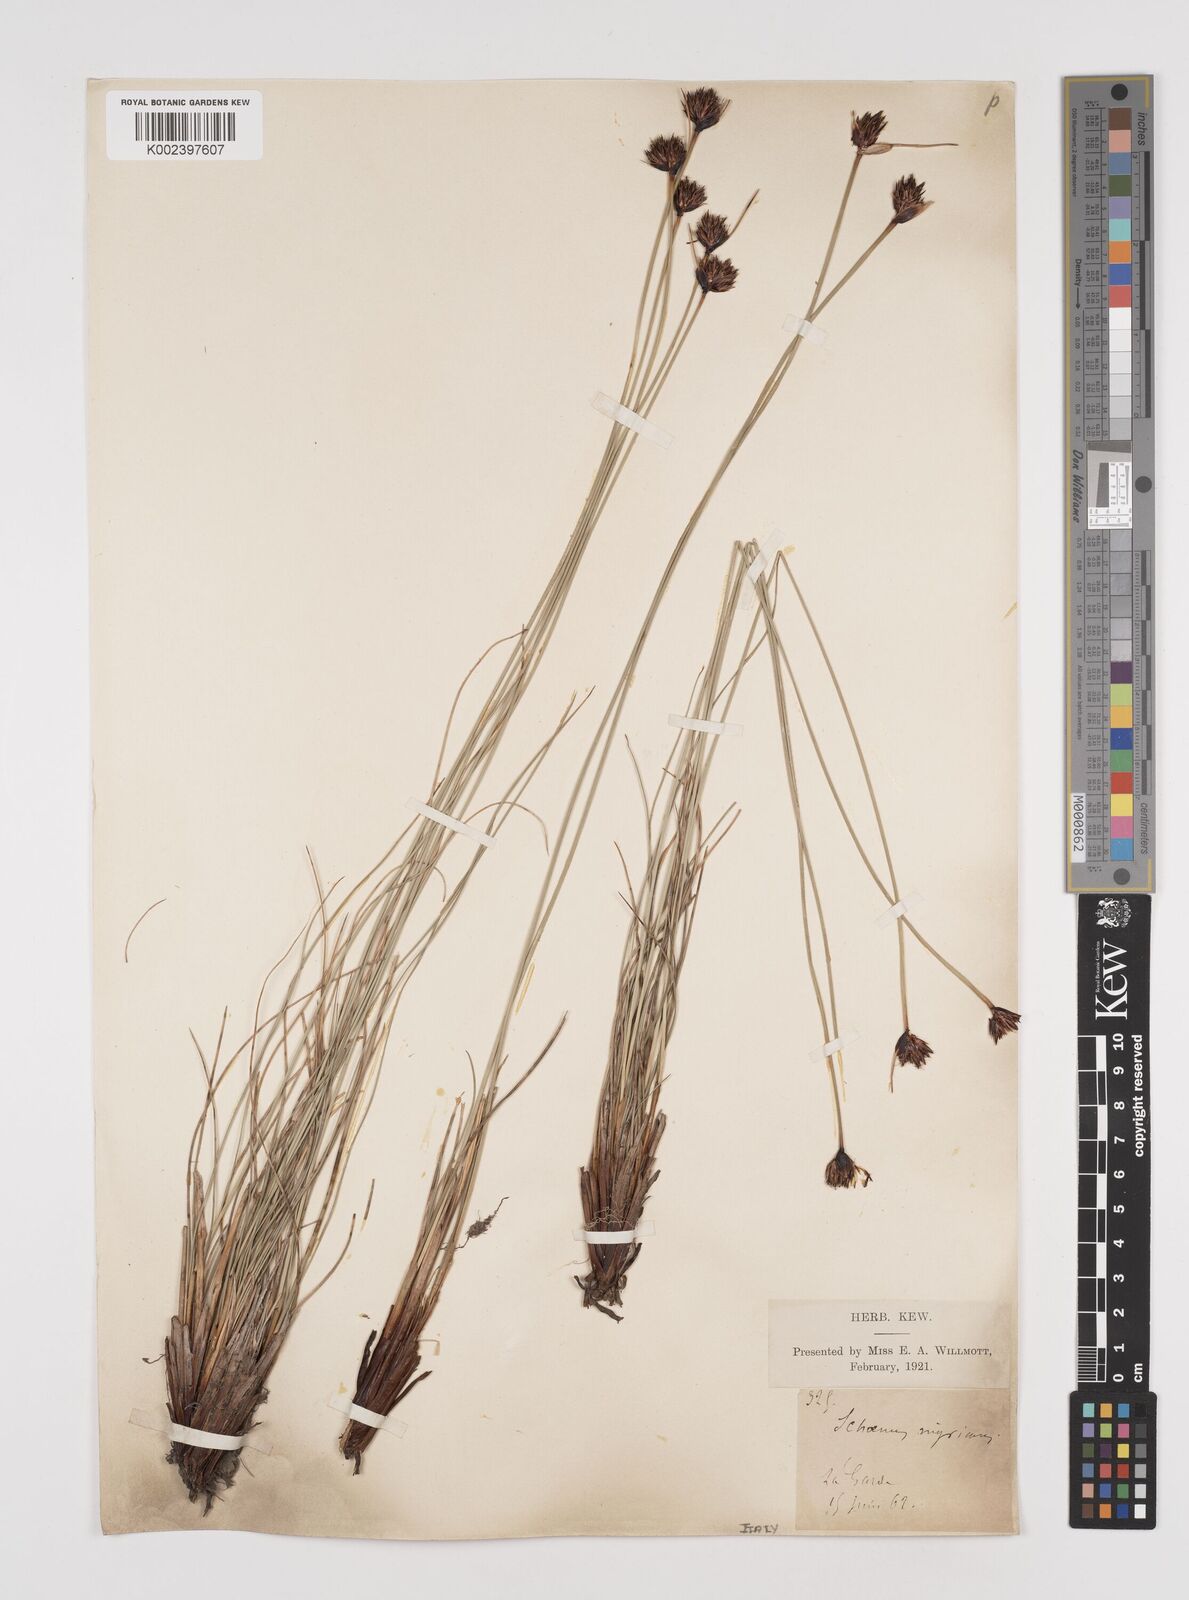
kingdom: Plantae
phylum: Tracheophyta
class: Liliopsida
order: Poales
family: Cyperaceae
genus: Schoenus
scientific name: Schoenus nigricans
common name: Black bog-rush
